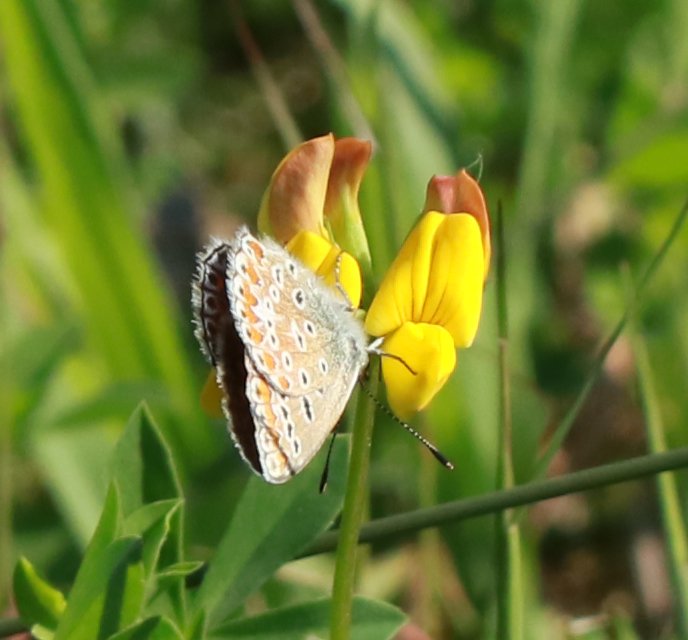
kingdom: Animalia
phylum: Arthropoda
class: Insecta
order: Lepidoptera
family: Lycaenidae
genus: Polyommatus
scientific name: Polyommatus icarus
